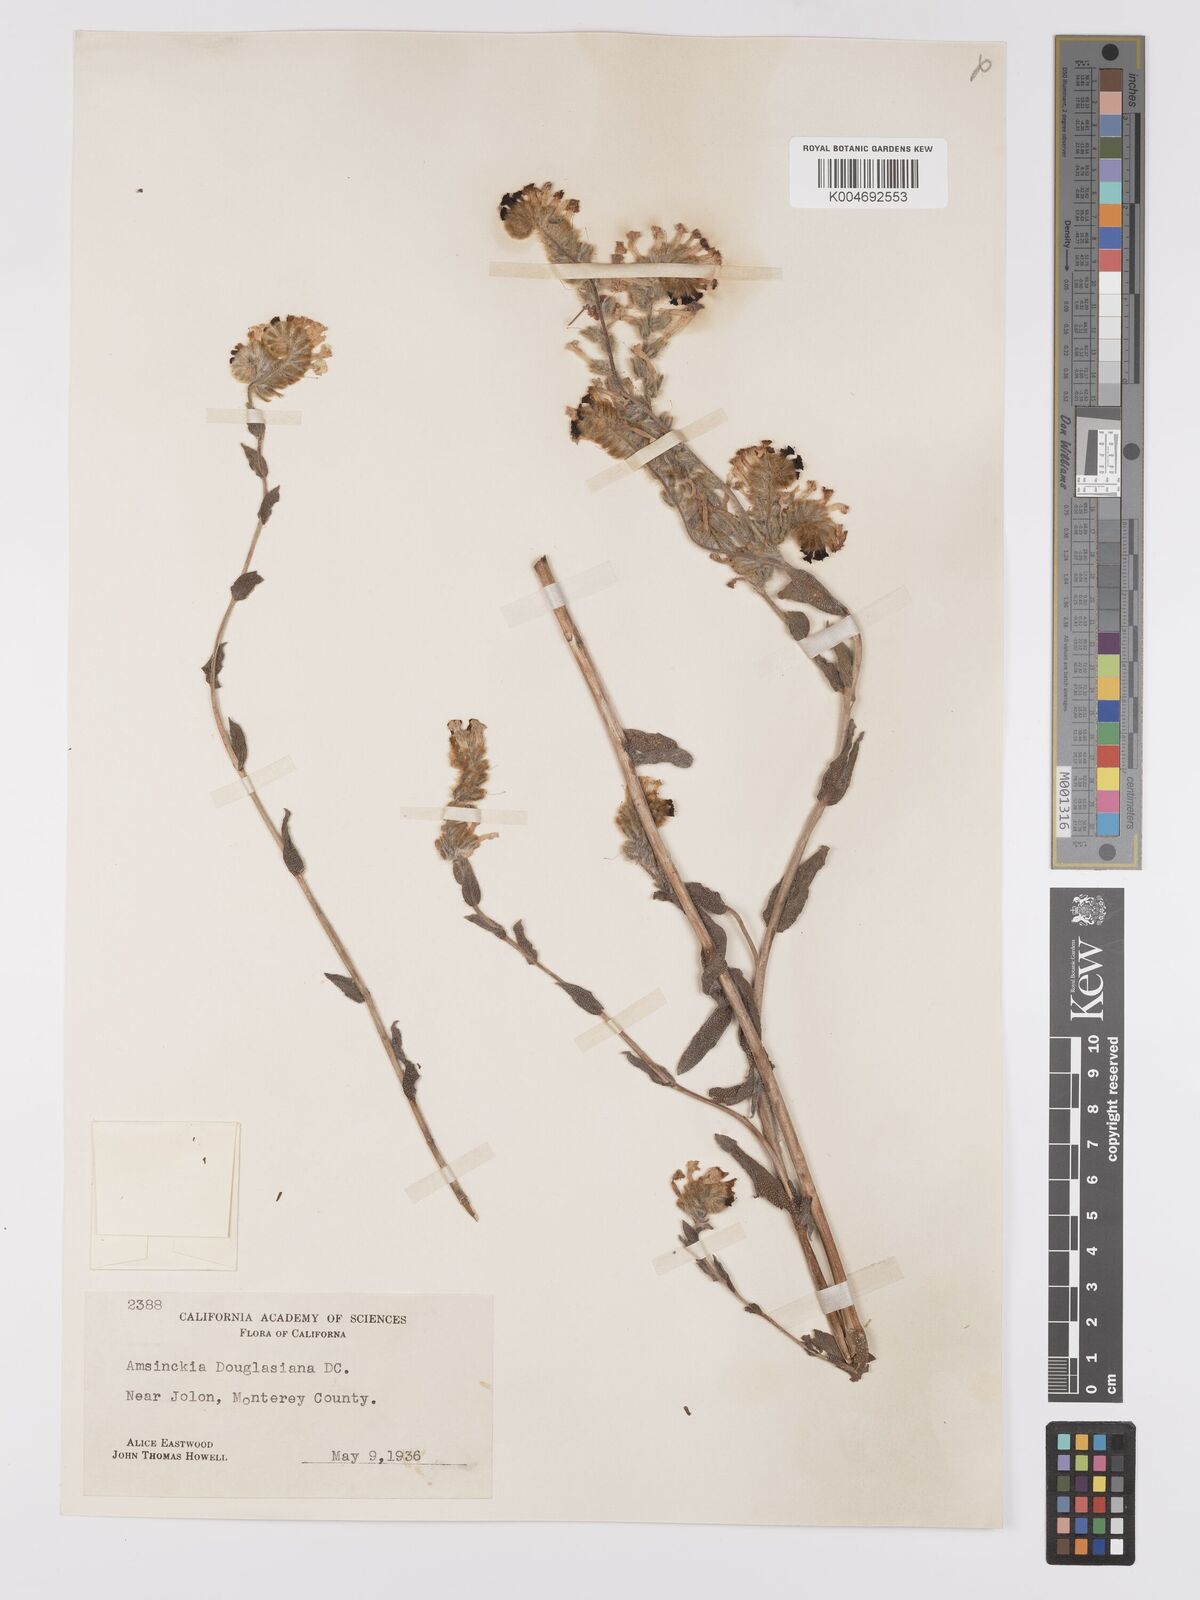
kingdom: Plantae
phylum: Tracheophyta
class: Magnoliopsida
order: Boraginales
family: Boraginaceae
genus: Amsinckia
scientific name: Amsinckia douglasiana
